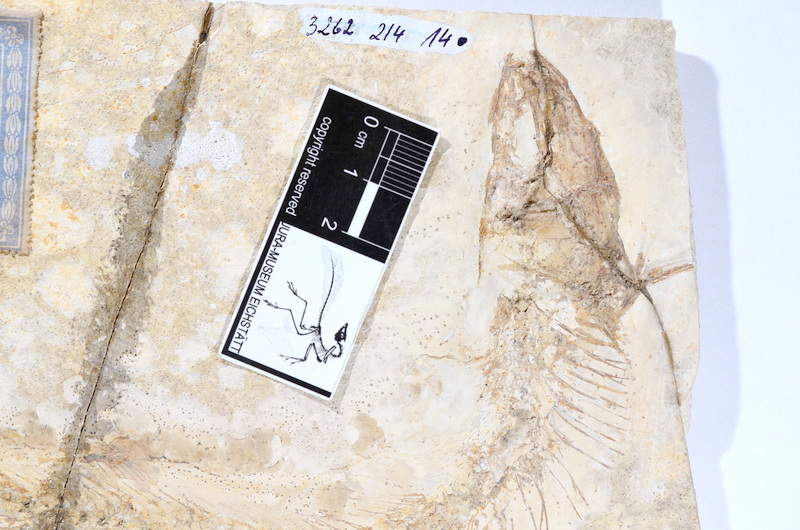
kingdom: Animalia
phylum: Chordata
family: Allothrissopidae
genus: Allothrissops
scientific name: Allothrissops mesogaster
